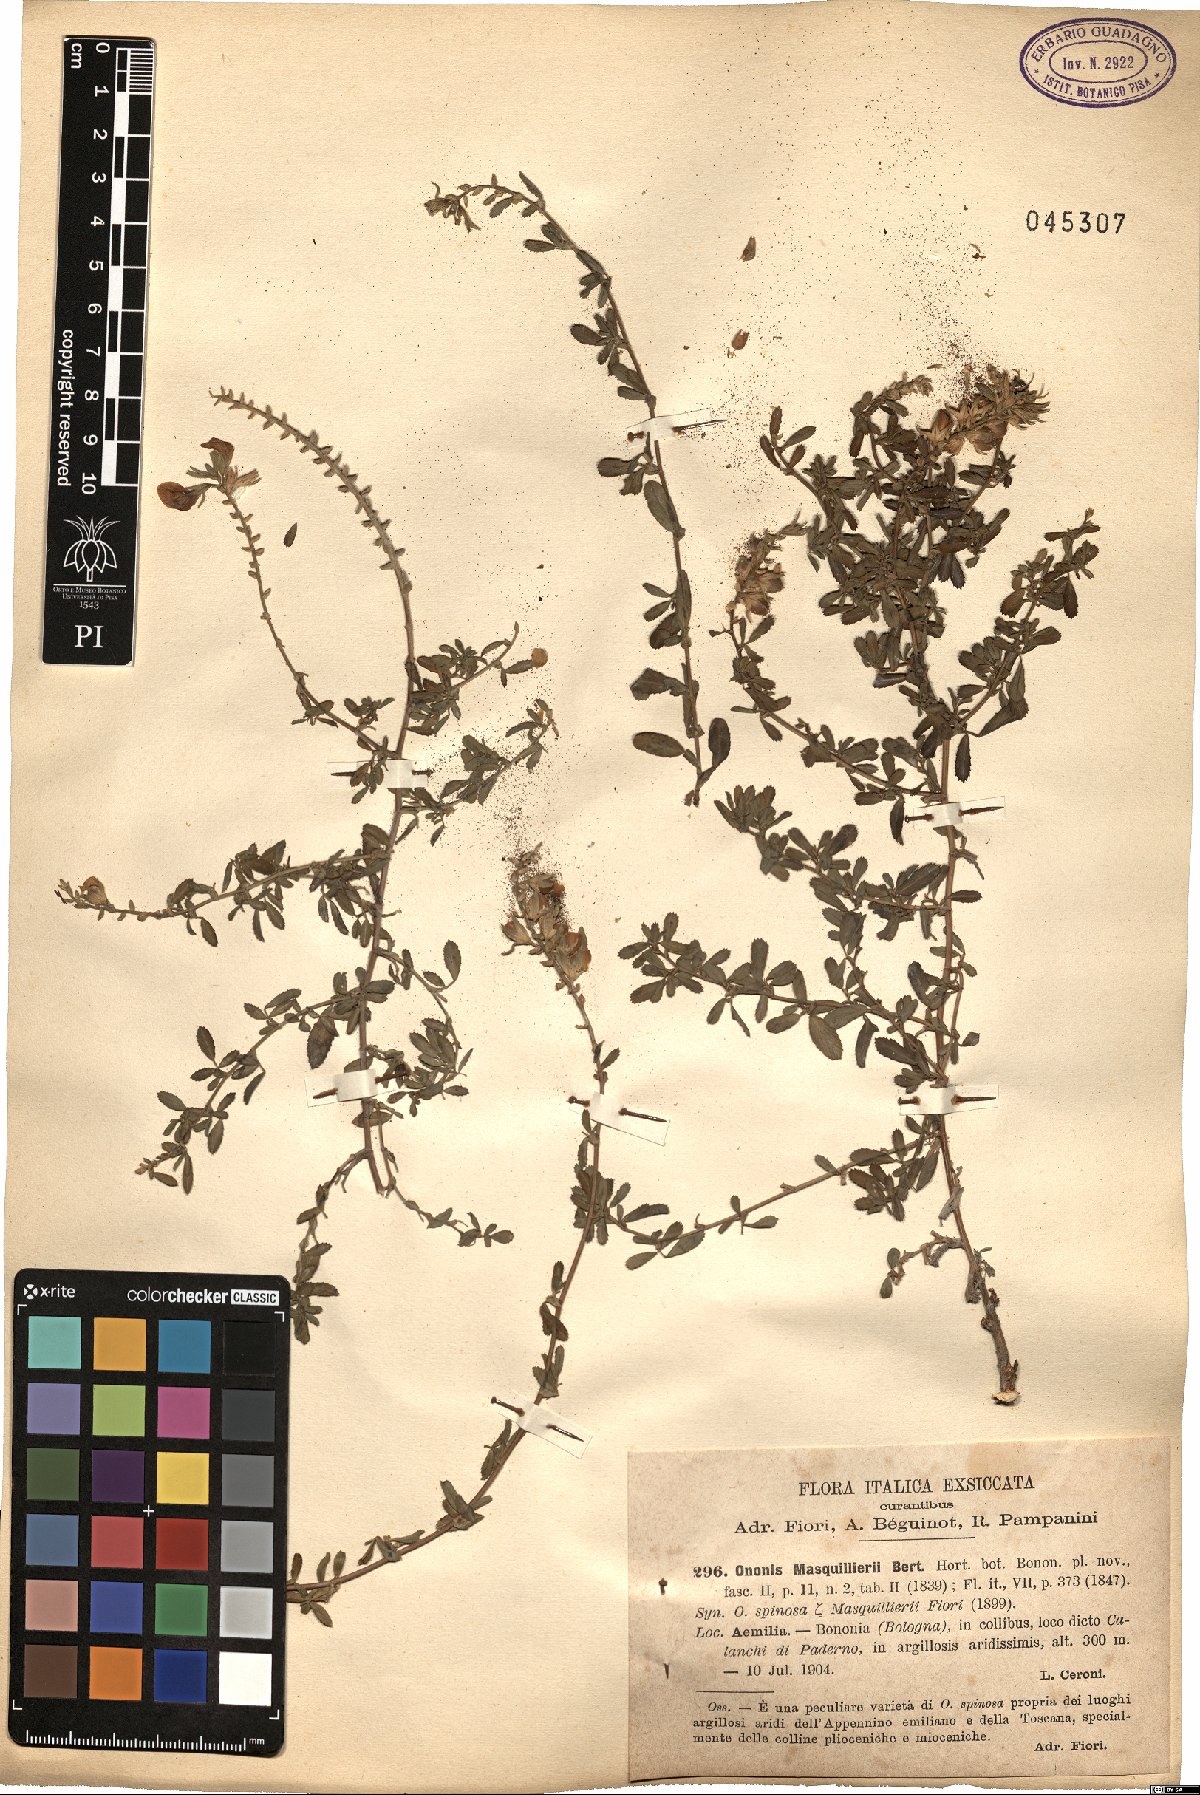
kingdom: Plantae
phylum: Tracheophyta
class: Magnoliopsida
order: Fabales
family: Fabaceae
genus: Ononis
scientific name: Ononis spinosa
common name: Spiny restharrow
